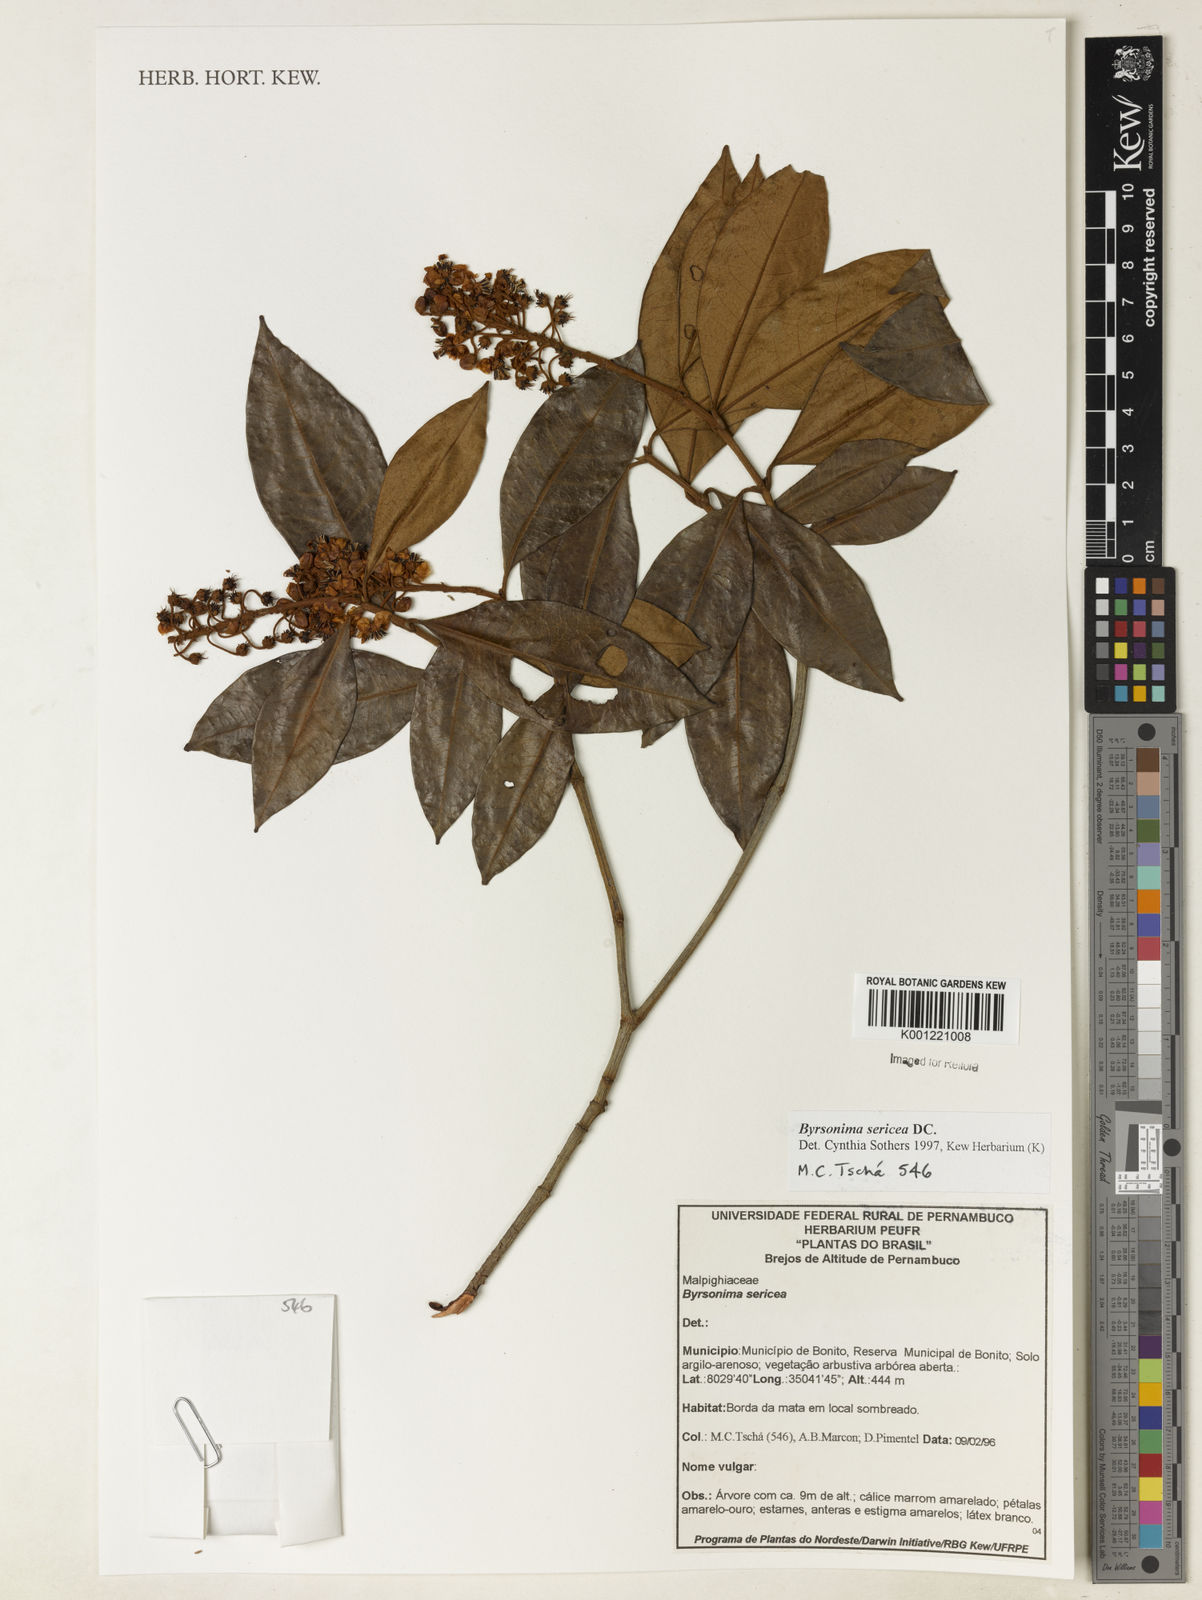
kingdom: Plantae
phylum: Tracheophyta
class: Magnoliopsida
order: Malpighiales
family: Malpighiaceae
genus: Byrsonima
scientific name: Byrsonima sericea
